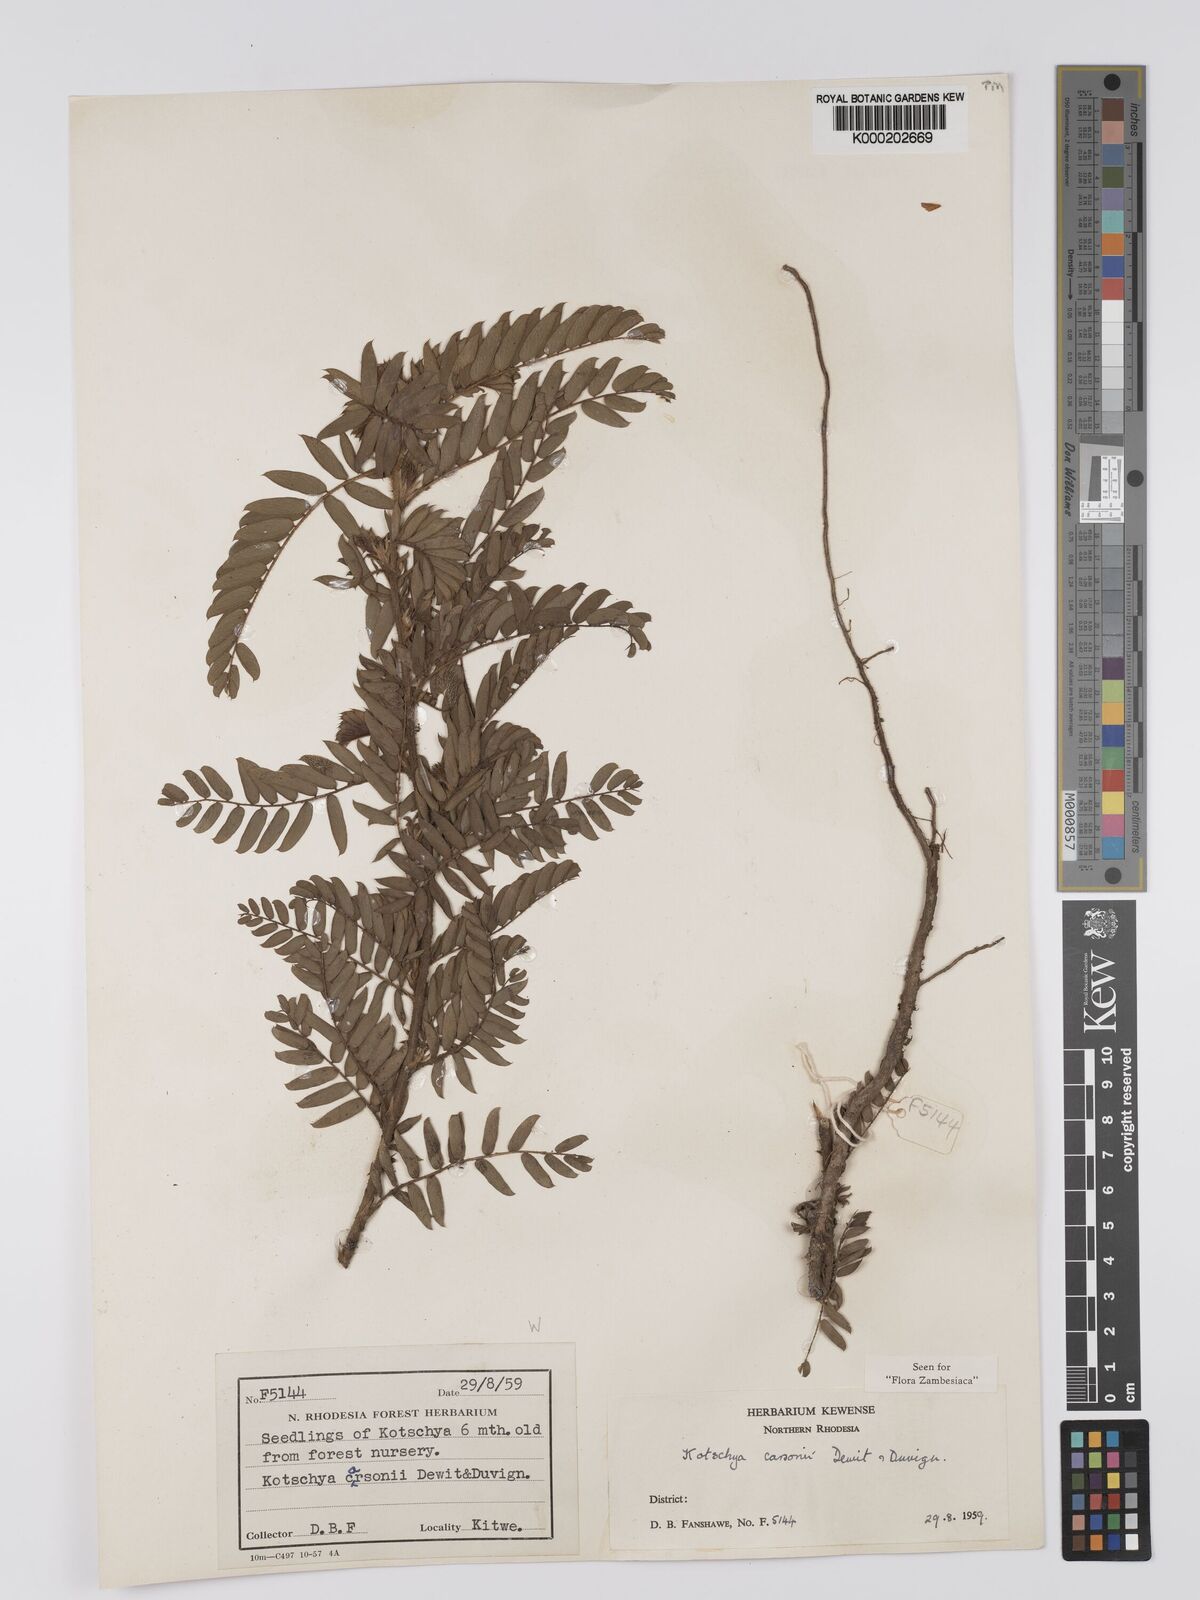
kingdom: Plantae
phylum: Tracheophyta
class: Magnoliopsida
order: Fabales
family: Fabaceae
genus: Kotschya
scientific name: Kotschya carsonii
